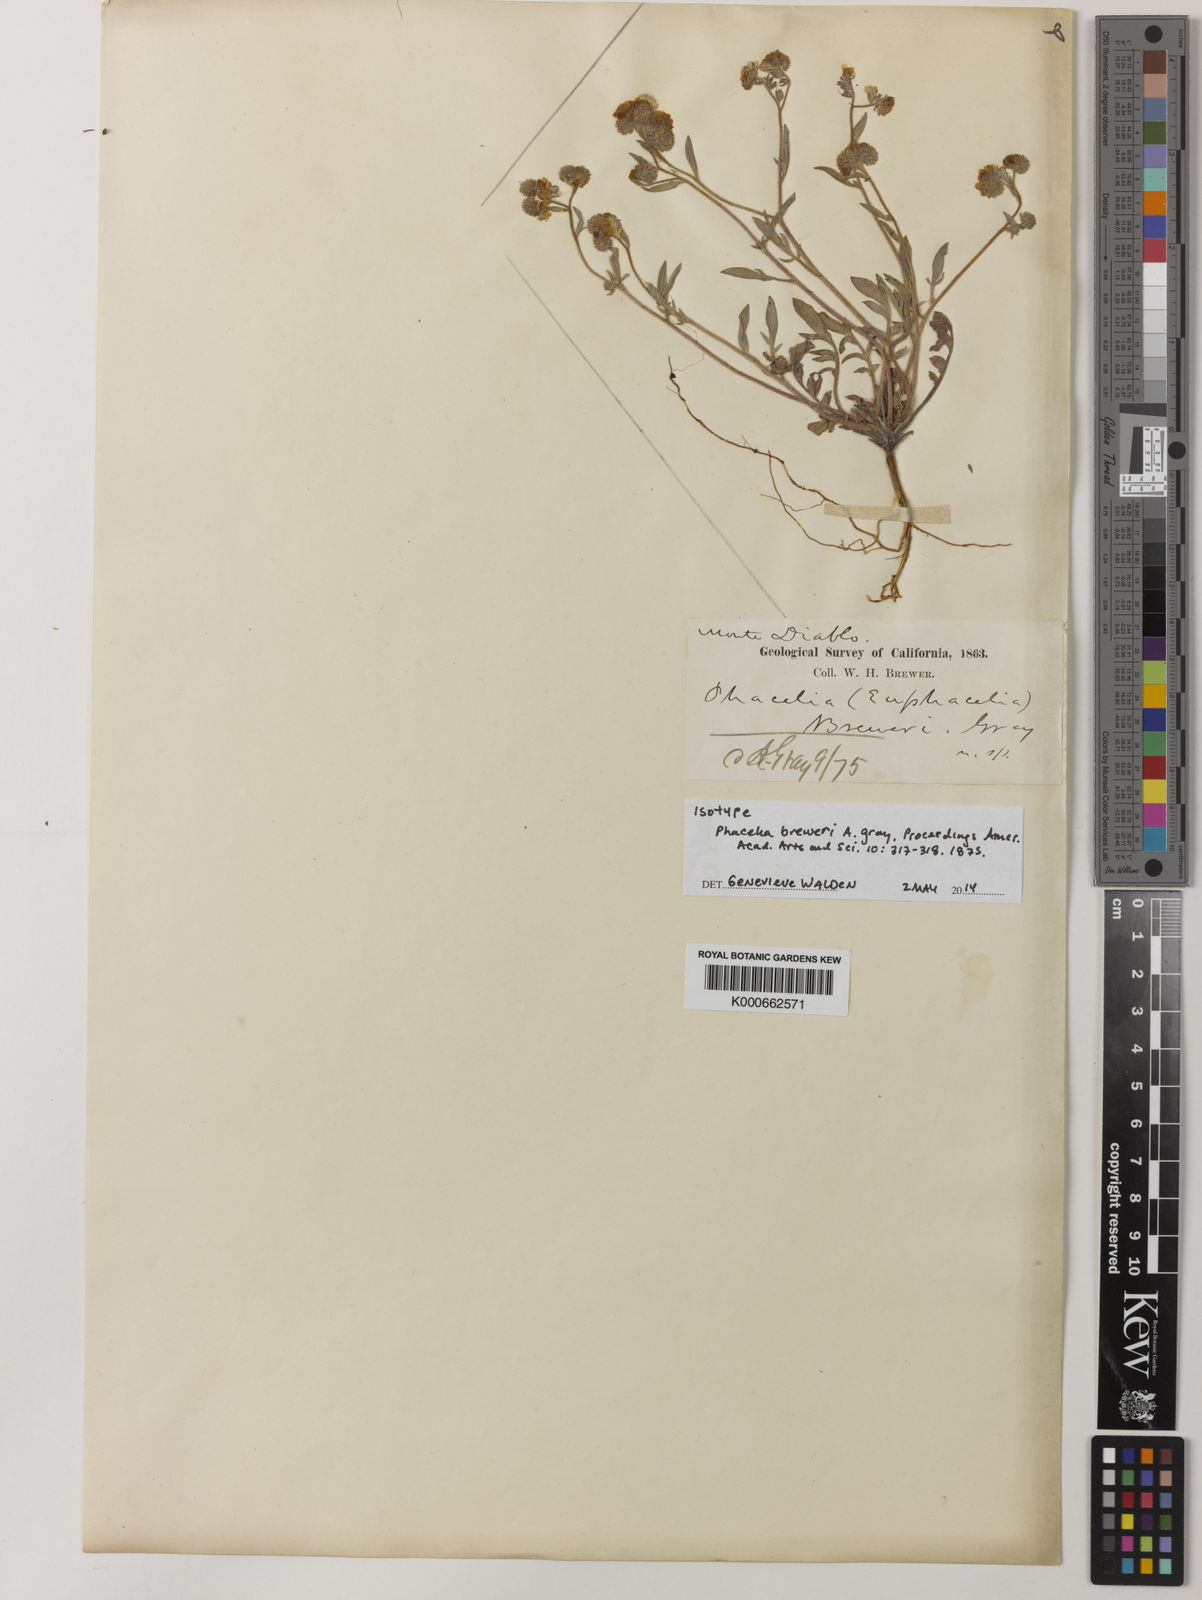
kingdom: Plantae
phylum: Tracheophyta
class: Magnoliopsida
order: Boraginales
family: Hydrophyllaceae
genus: Phacelia
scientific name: Phacelia breweri
